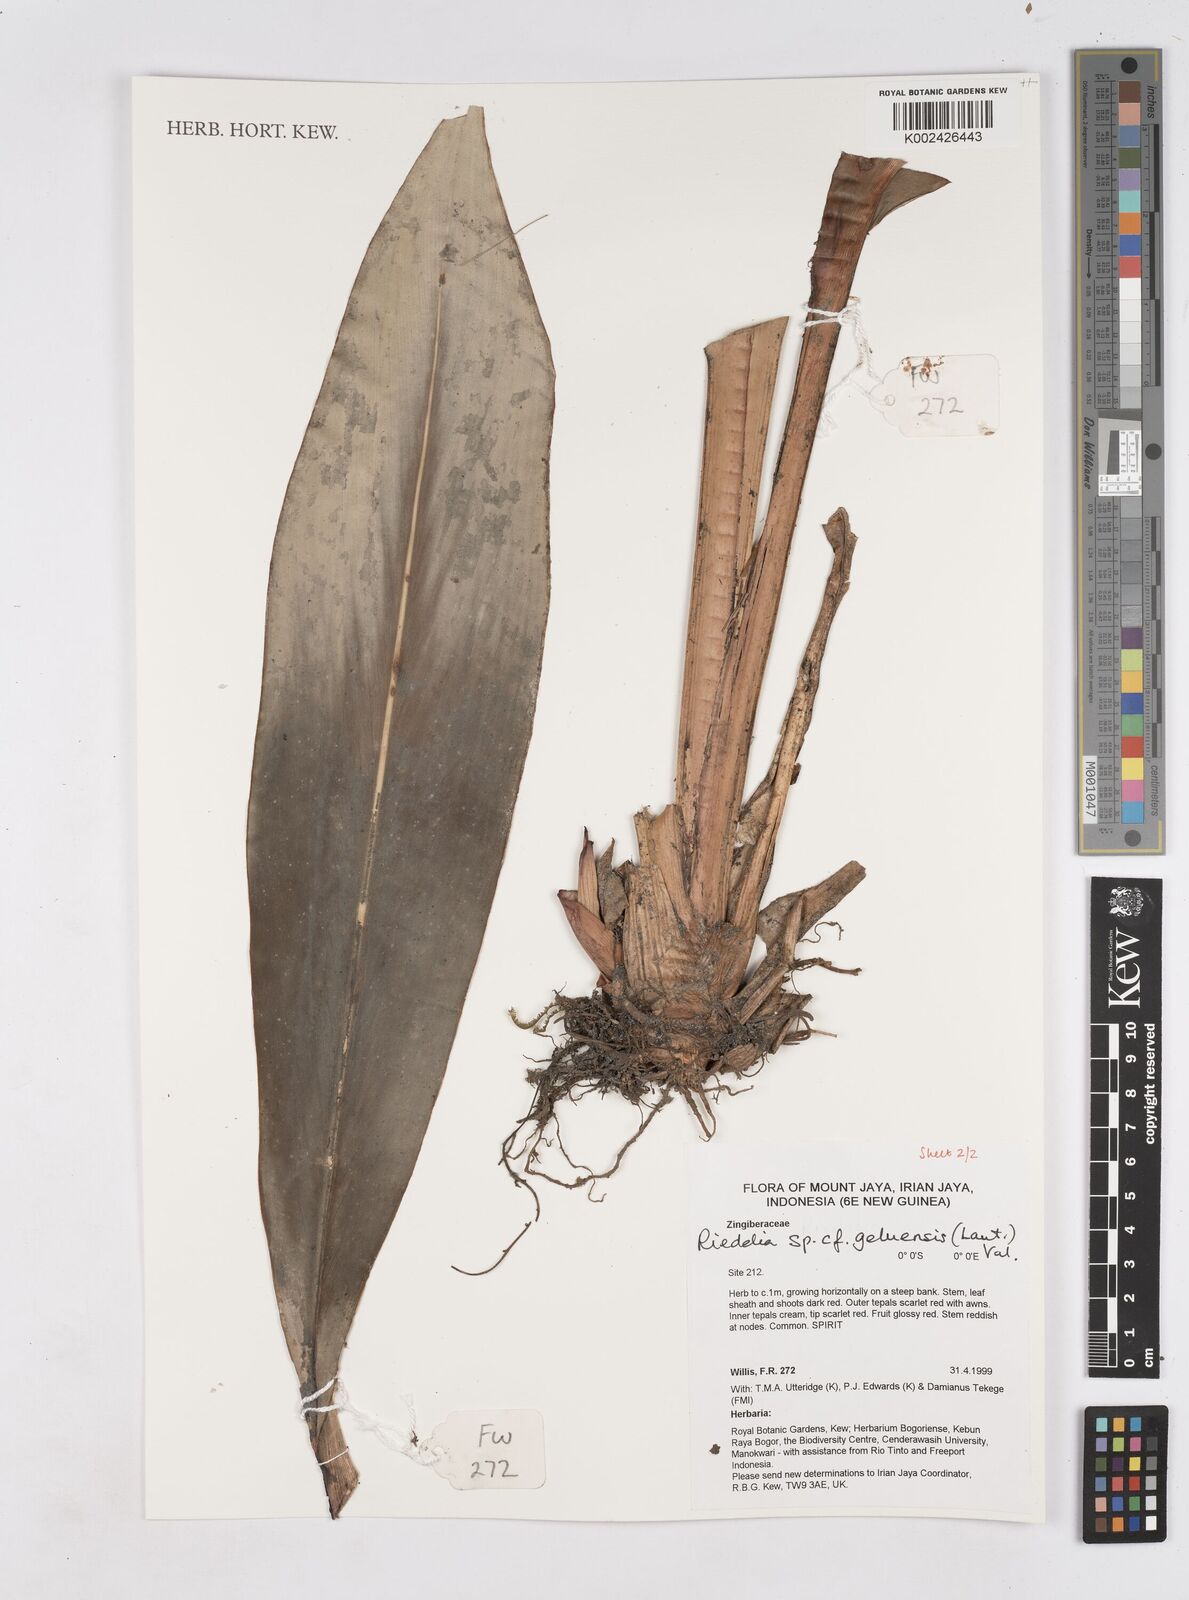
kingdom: Plantae
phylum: Tracheophyta
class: Liliopsida
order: Zingiberales
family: Zingiberaceae
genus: Riedelia
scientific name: Riedelia geluensis
